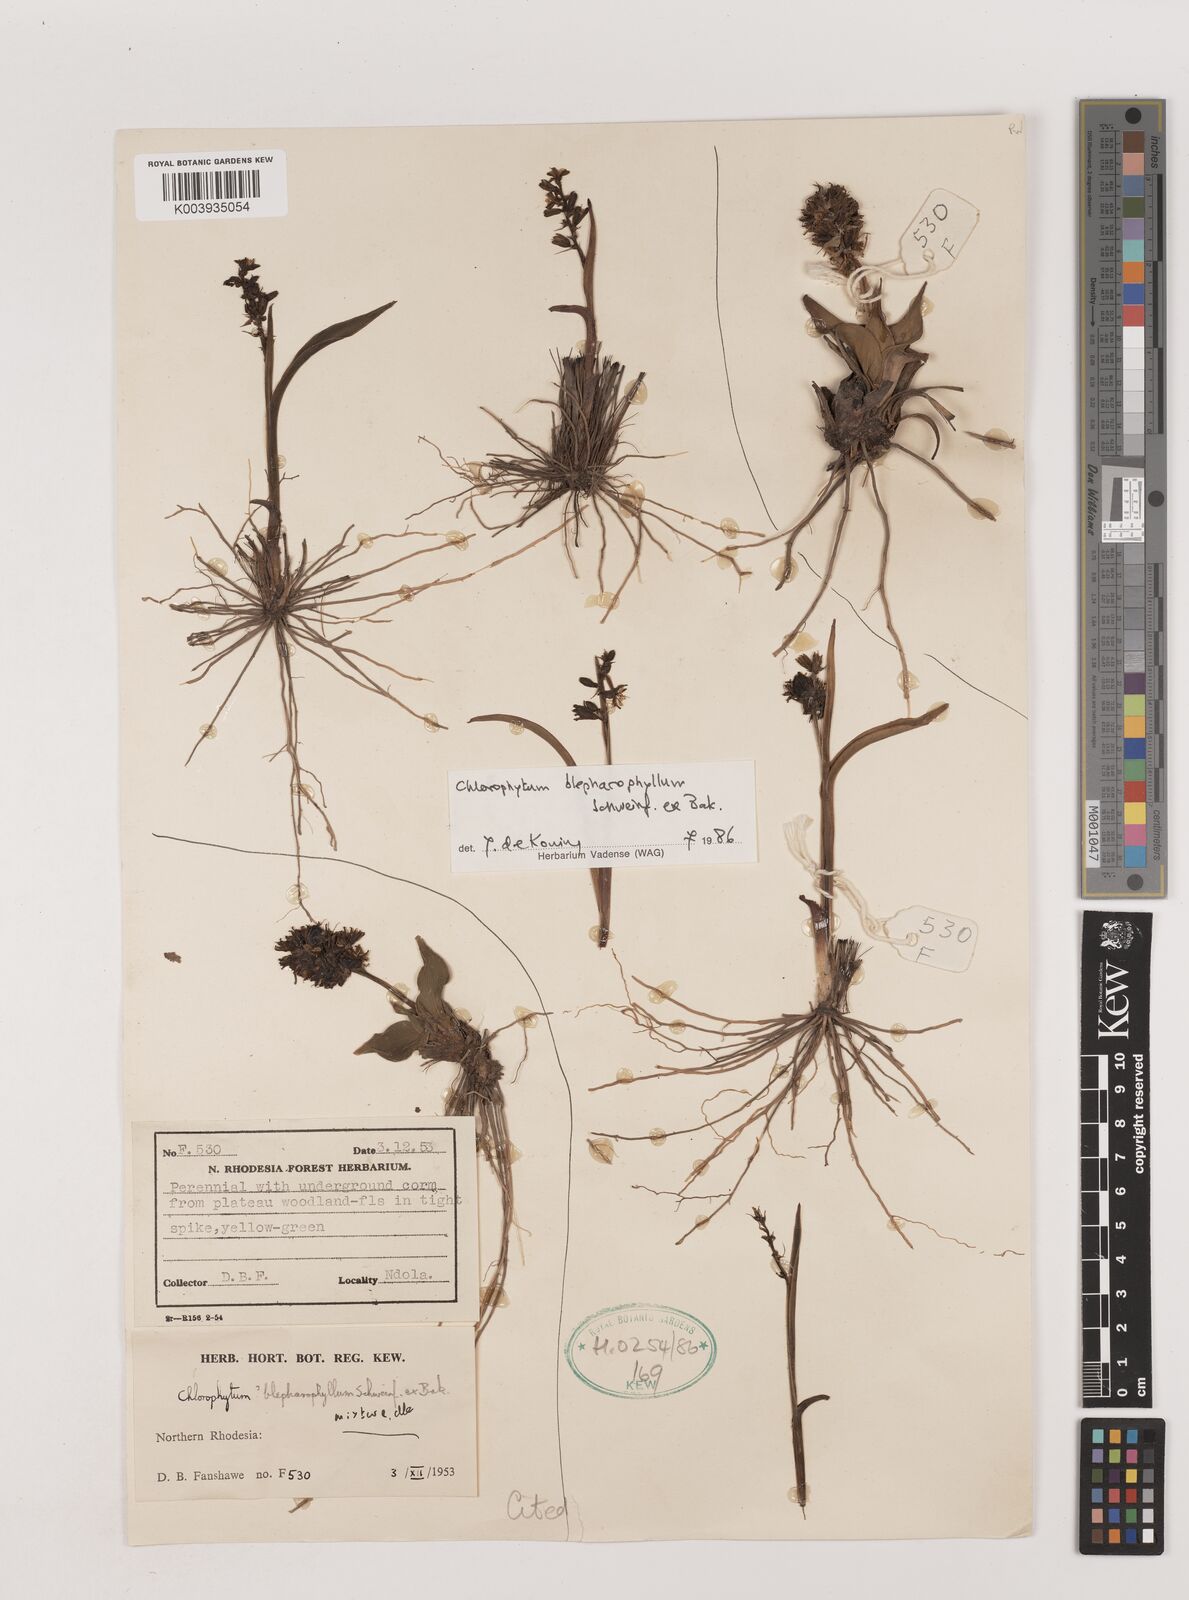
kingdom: Plantae
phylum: Tracheophyta
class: Liliopsida
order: Asparagales
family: Asparagaceae
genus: Chlorophytum
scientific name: Chlorophytum blepharophyllum
